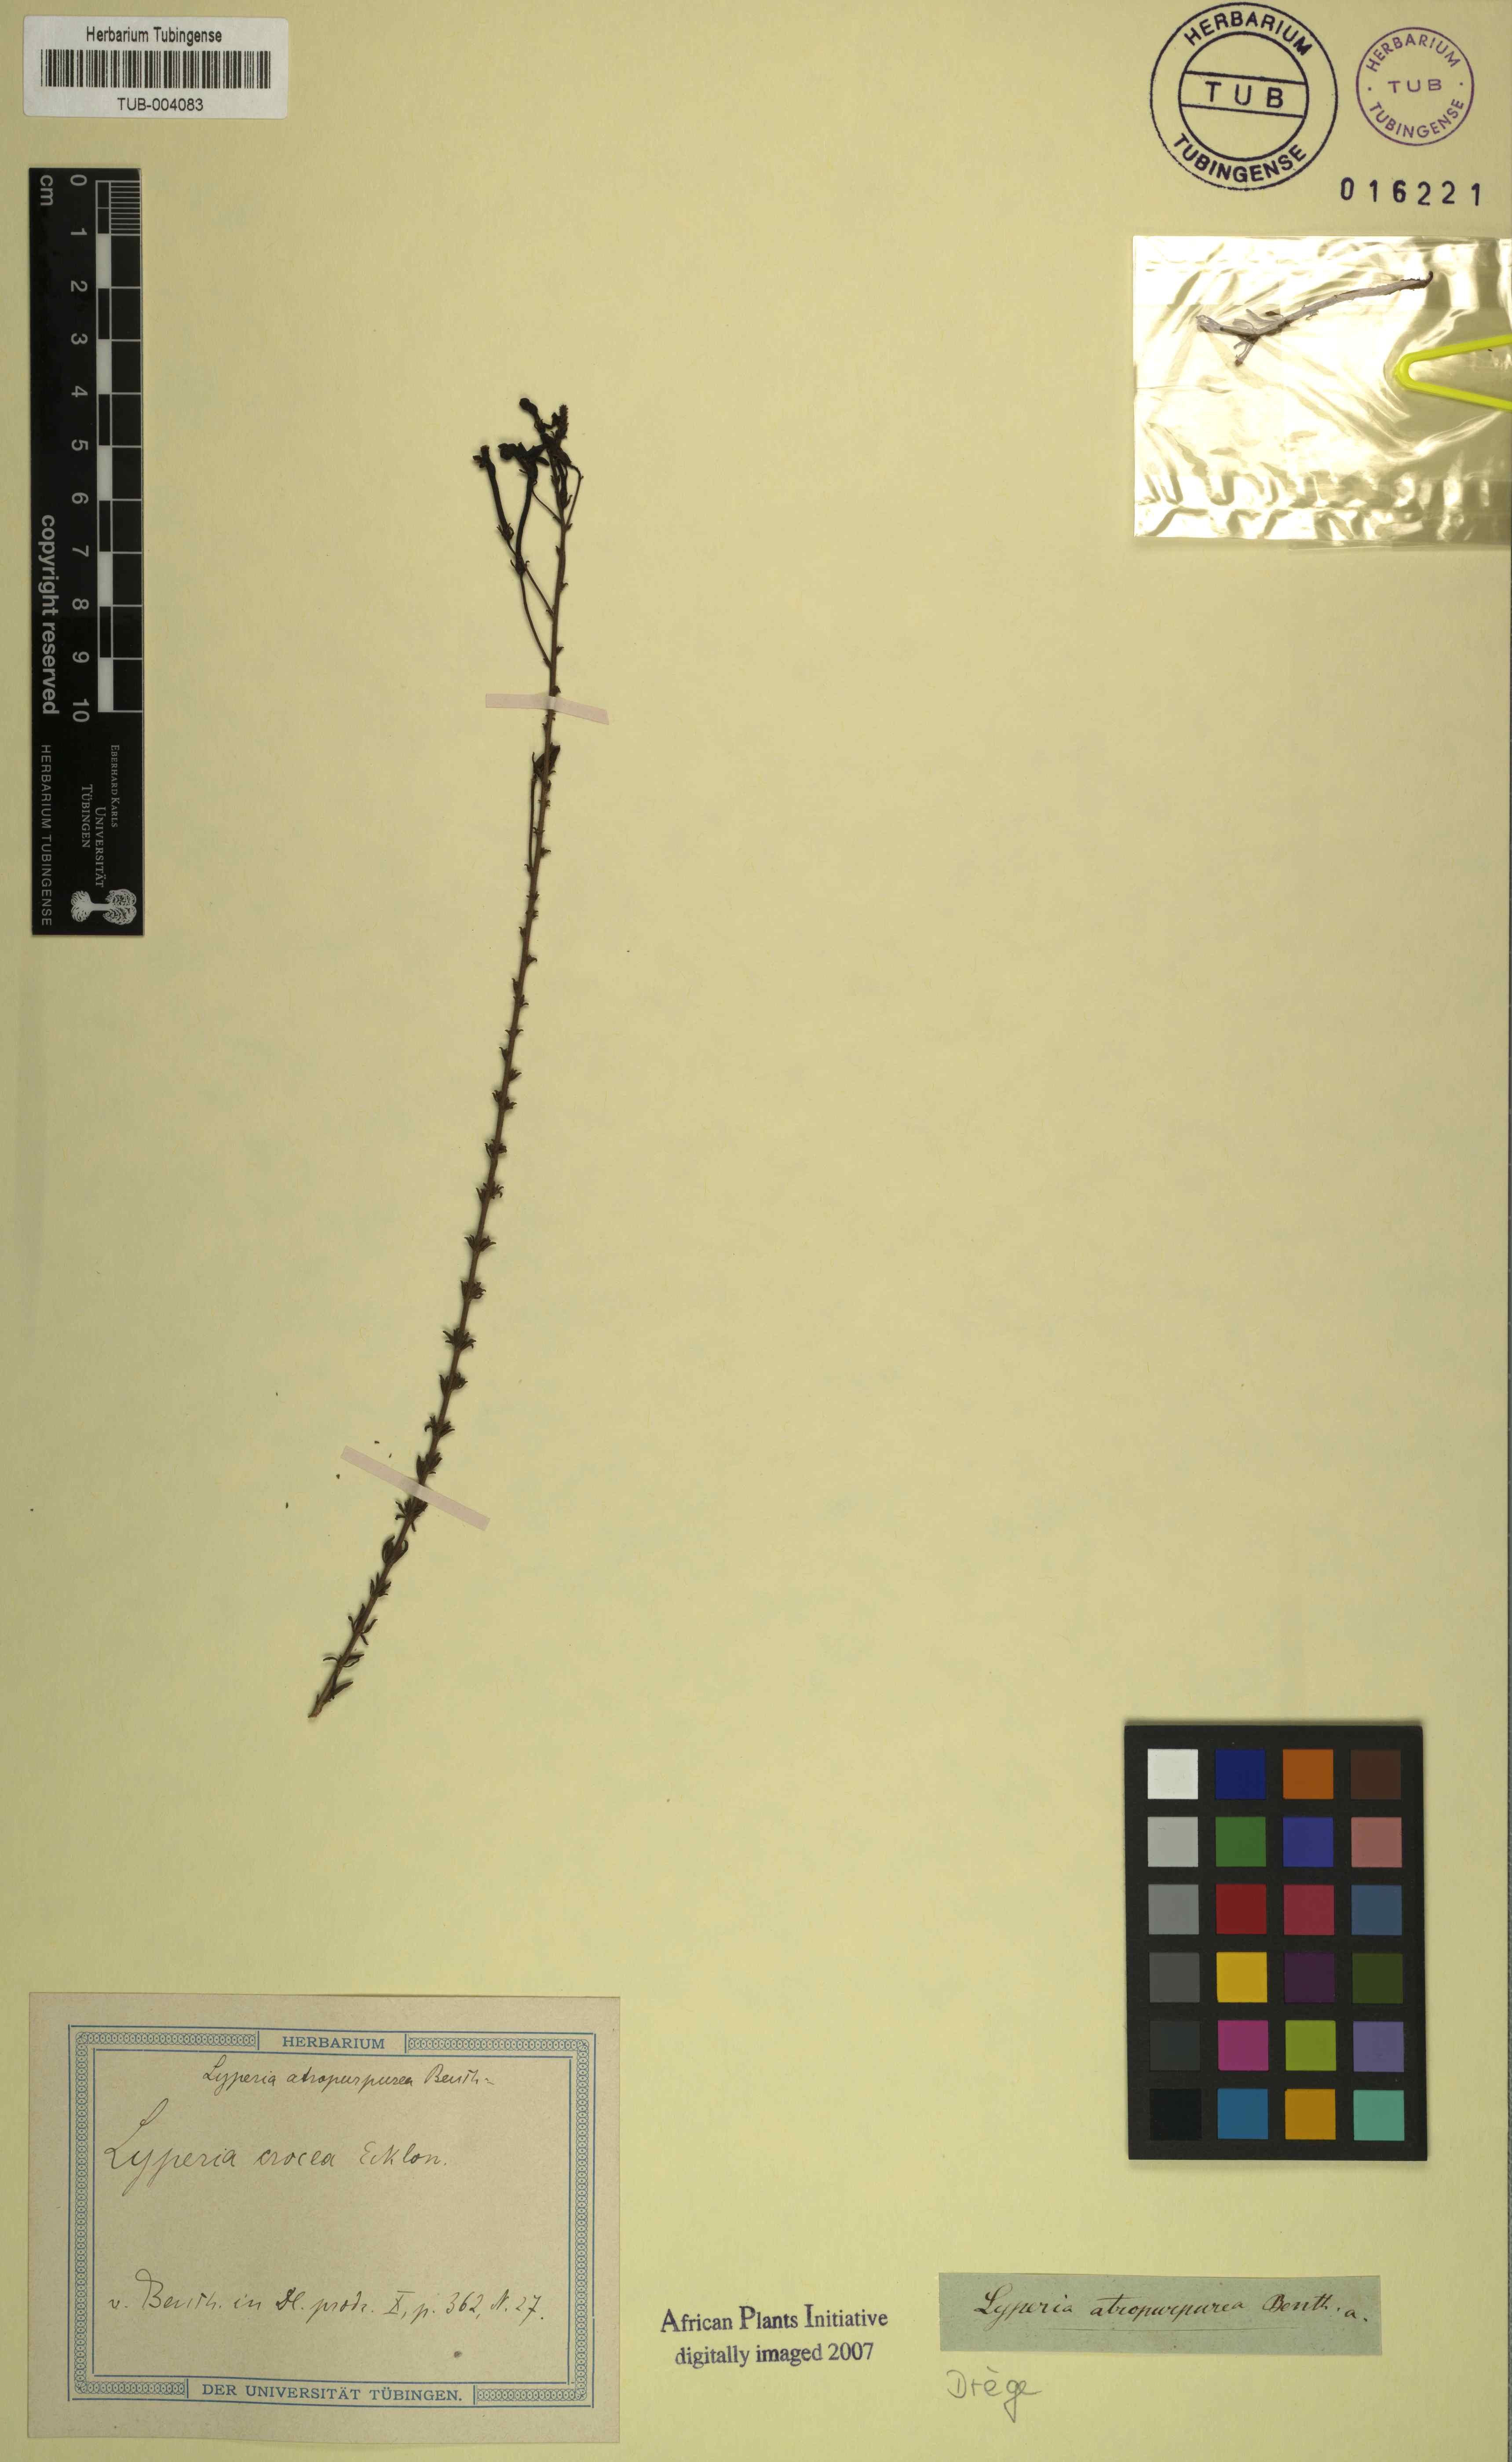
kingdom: Plantae
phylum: Tracheophyta
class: Magnoliopsida
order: Lamiales
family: Scrophulariaceae
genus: Jamesbrittenia
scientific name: Jamesbrittenia atropurpurea
